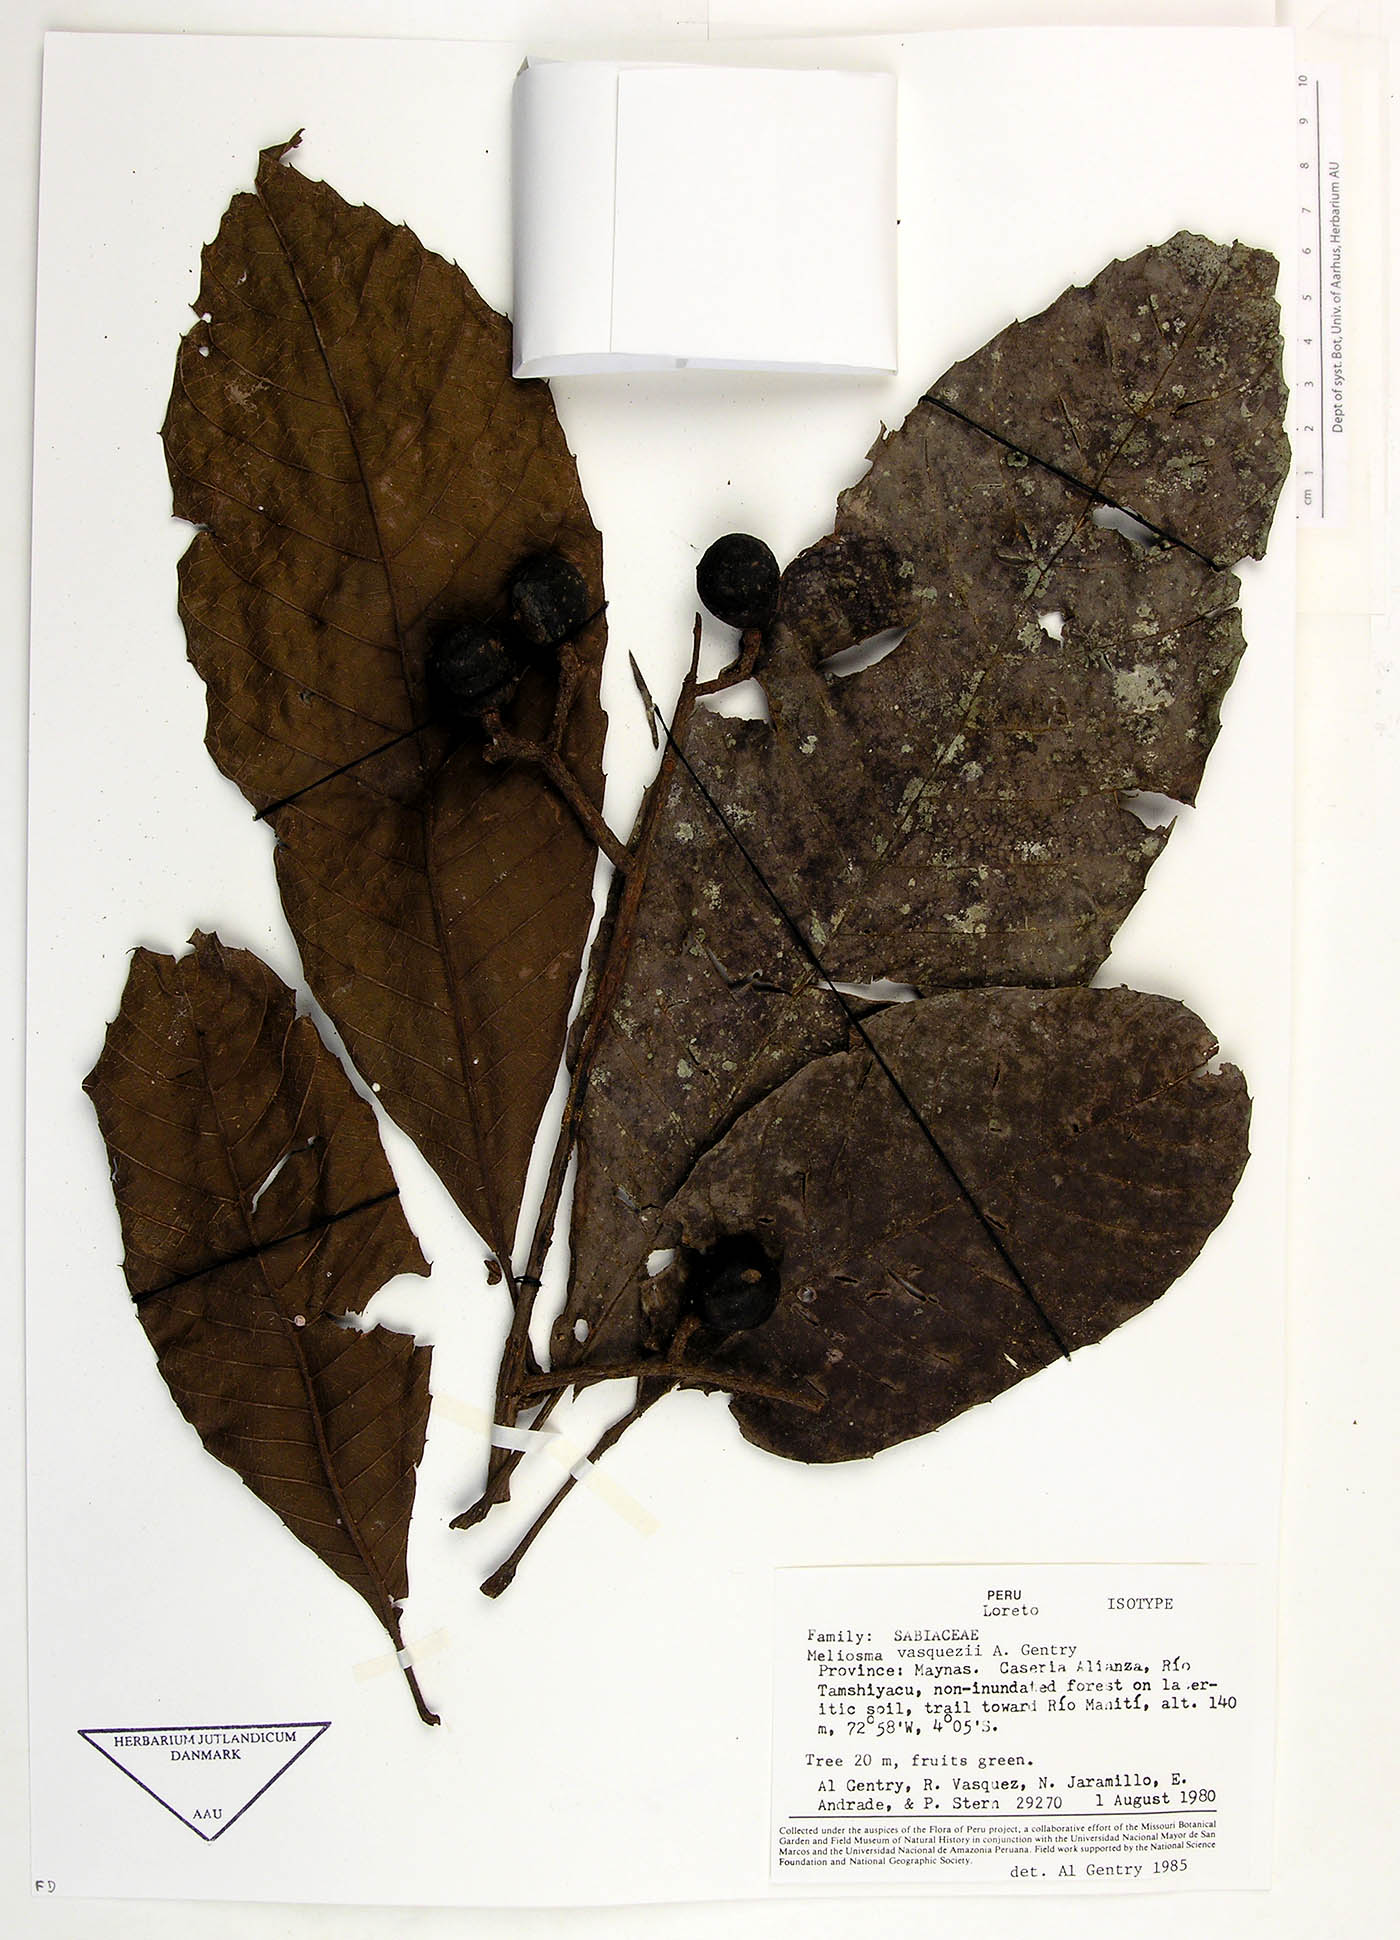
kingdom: Plantae
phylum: Tracheophyta
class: Magnoliopsida
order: Proteales
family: Sabiaceae
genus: Meliosma
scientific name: Meliosma vasquezii
